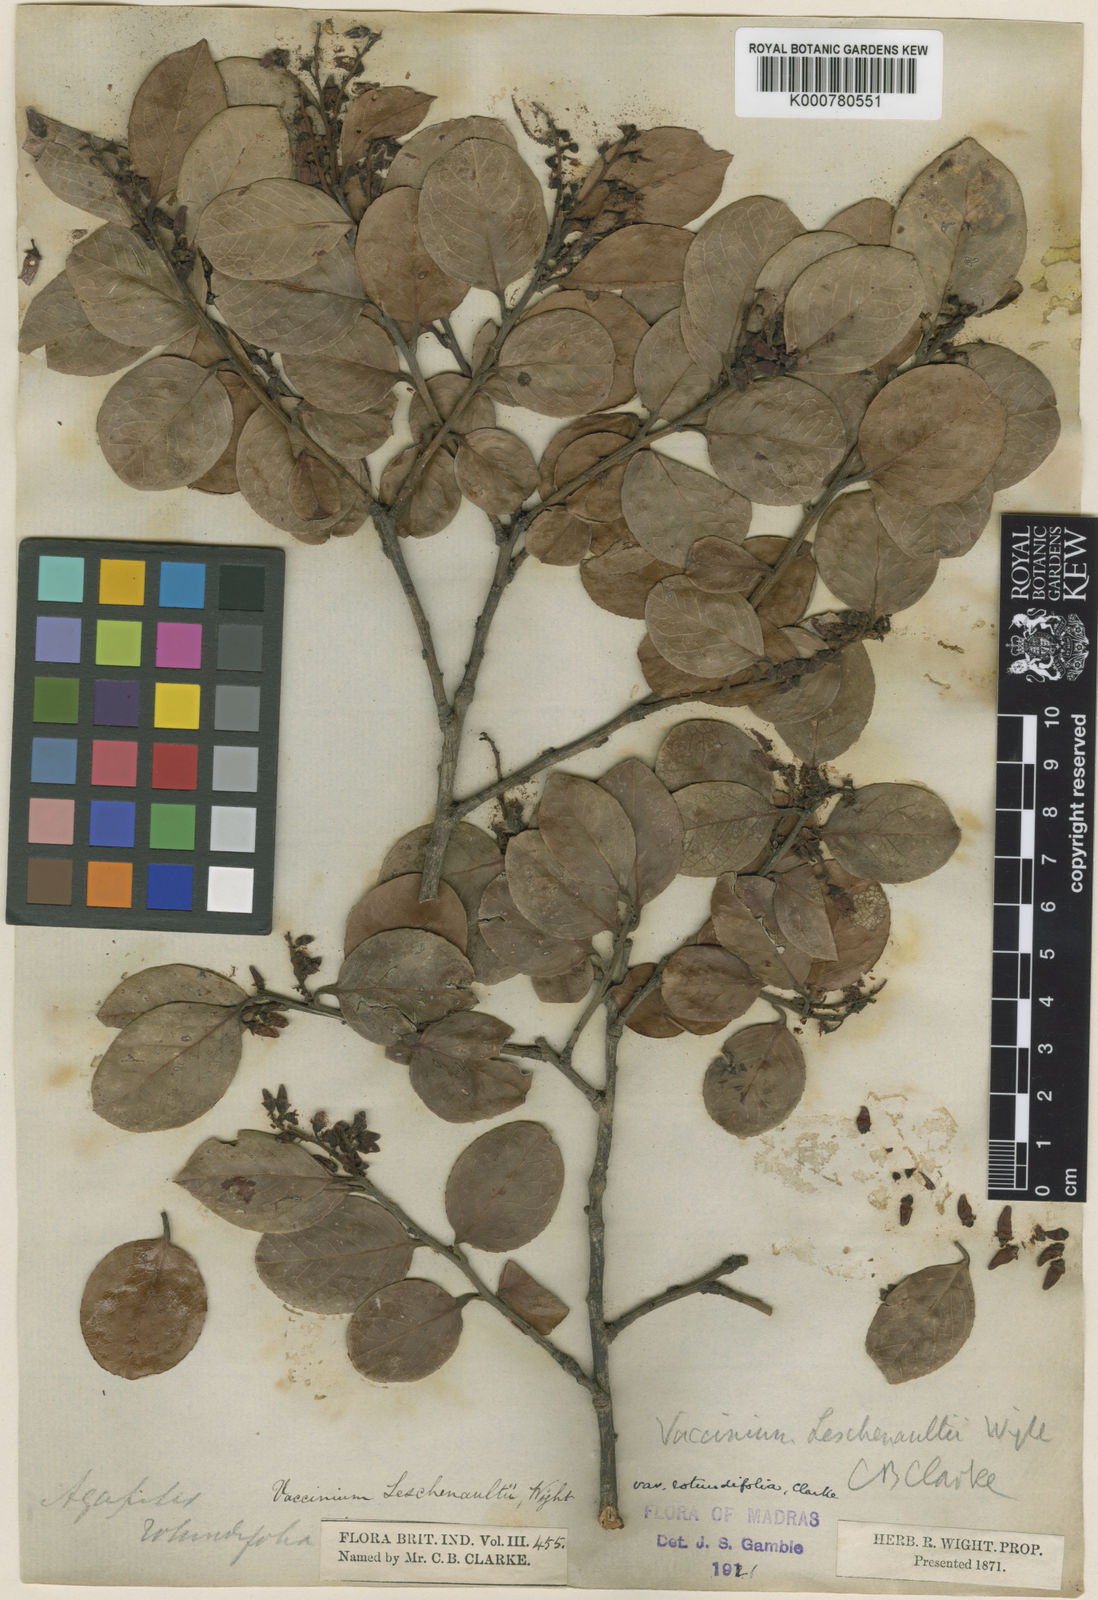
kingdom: Plantae
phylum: Tracheophyta
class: Magnoliopsida
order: Ericales
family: Ericaceae
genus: Vaccinium
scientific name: Vaccinium
